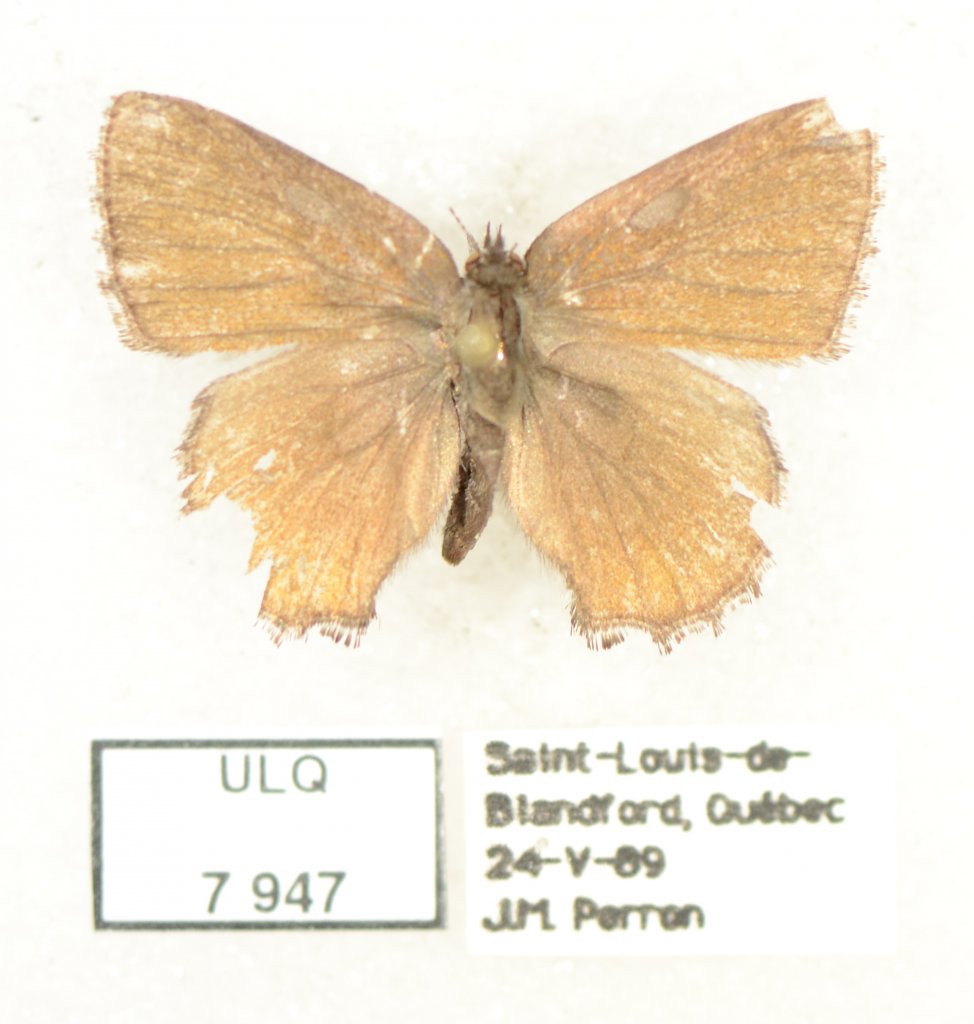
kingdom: Animalia
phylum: Arthropoda
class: Insecta
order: Lepidoptera
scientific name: Lepidoptera
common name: Butterflies
